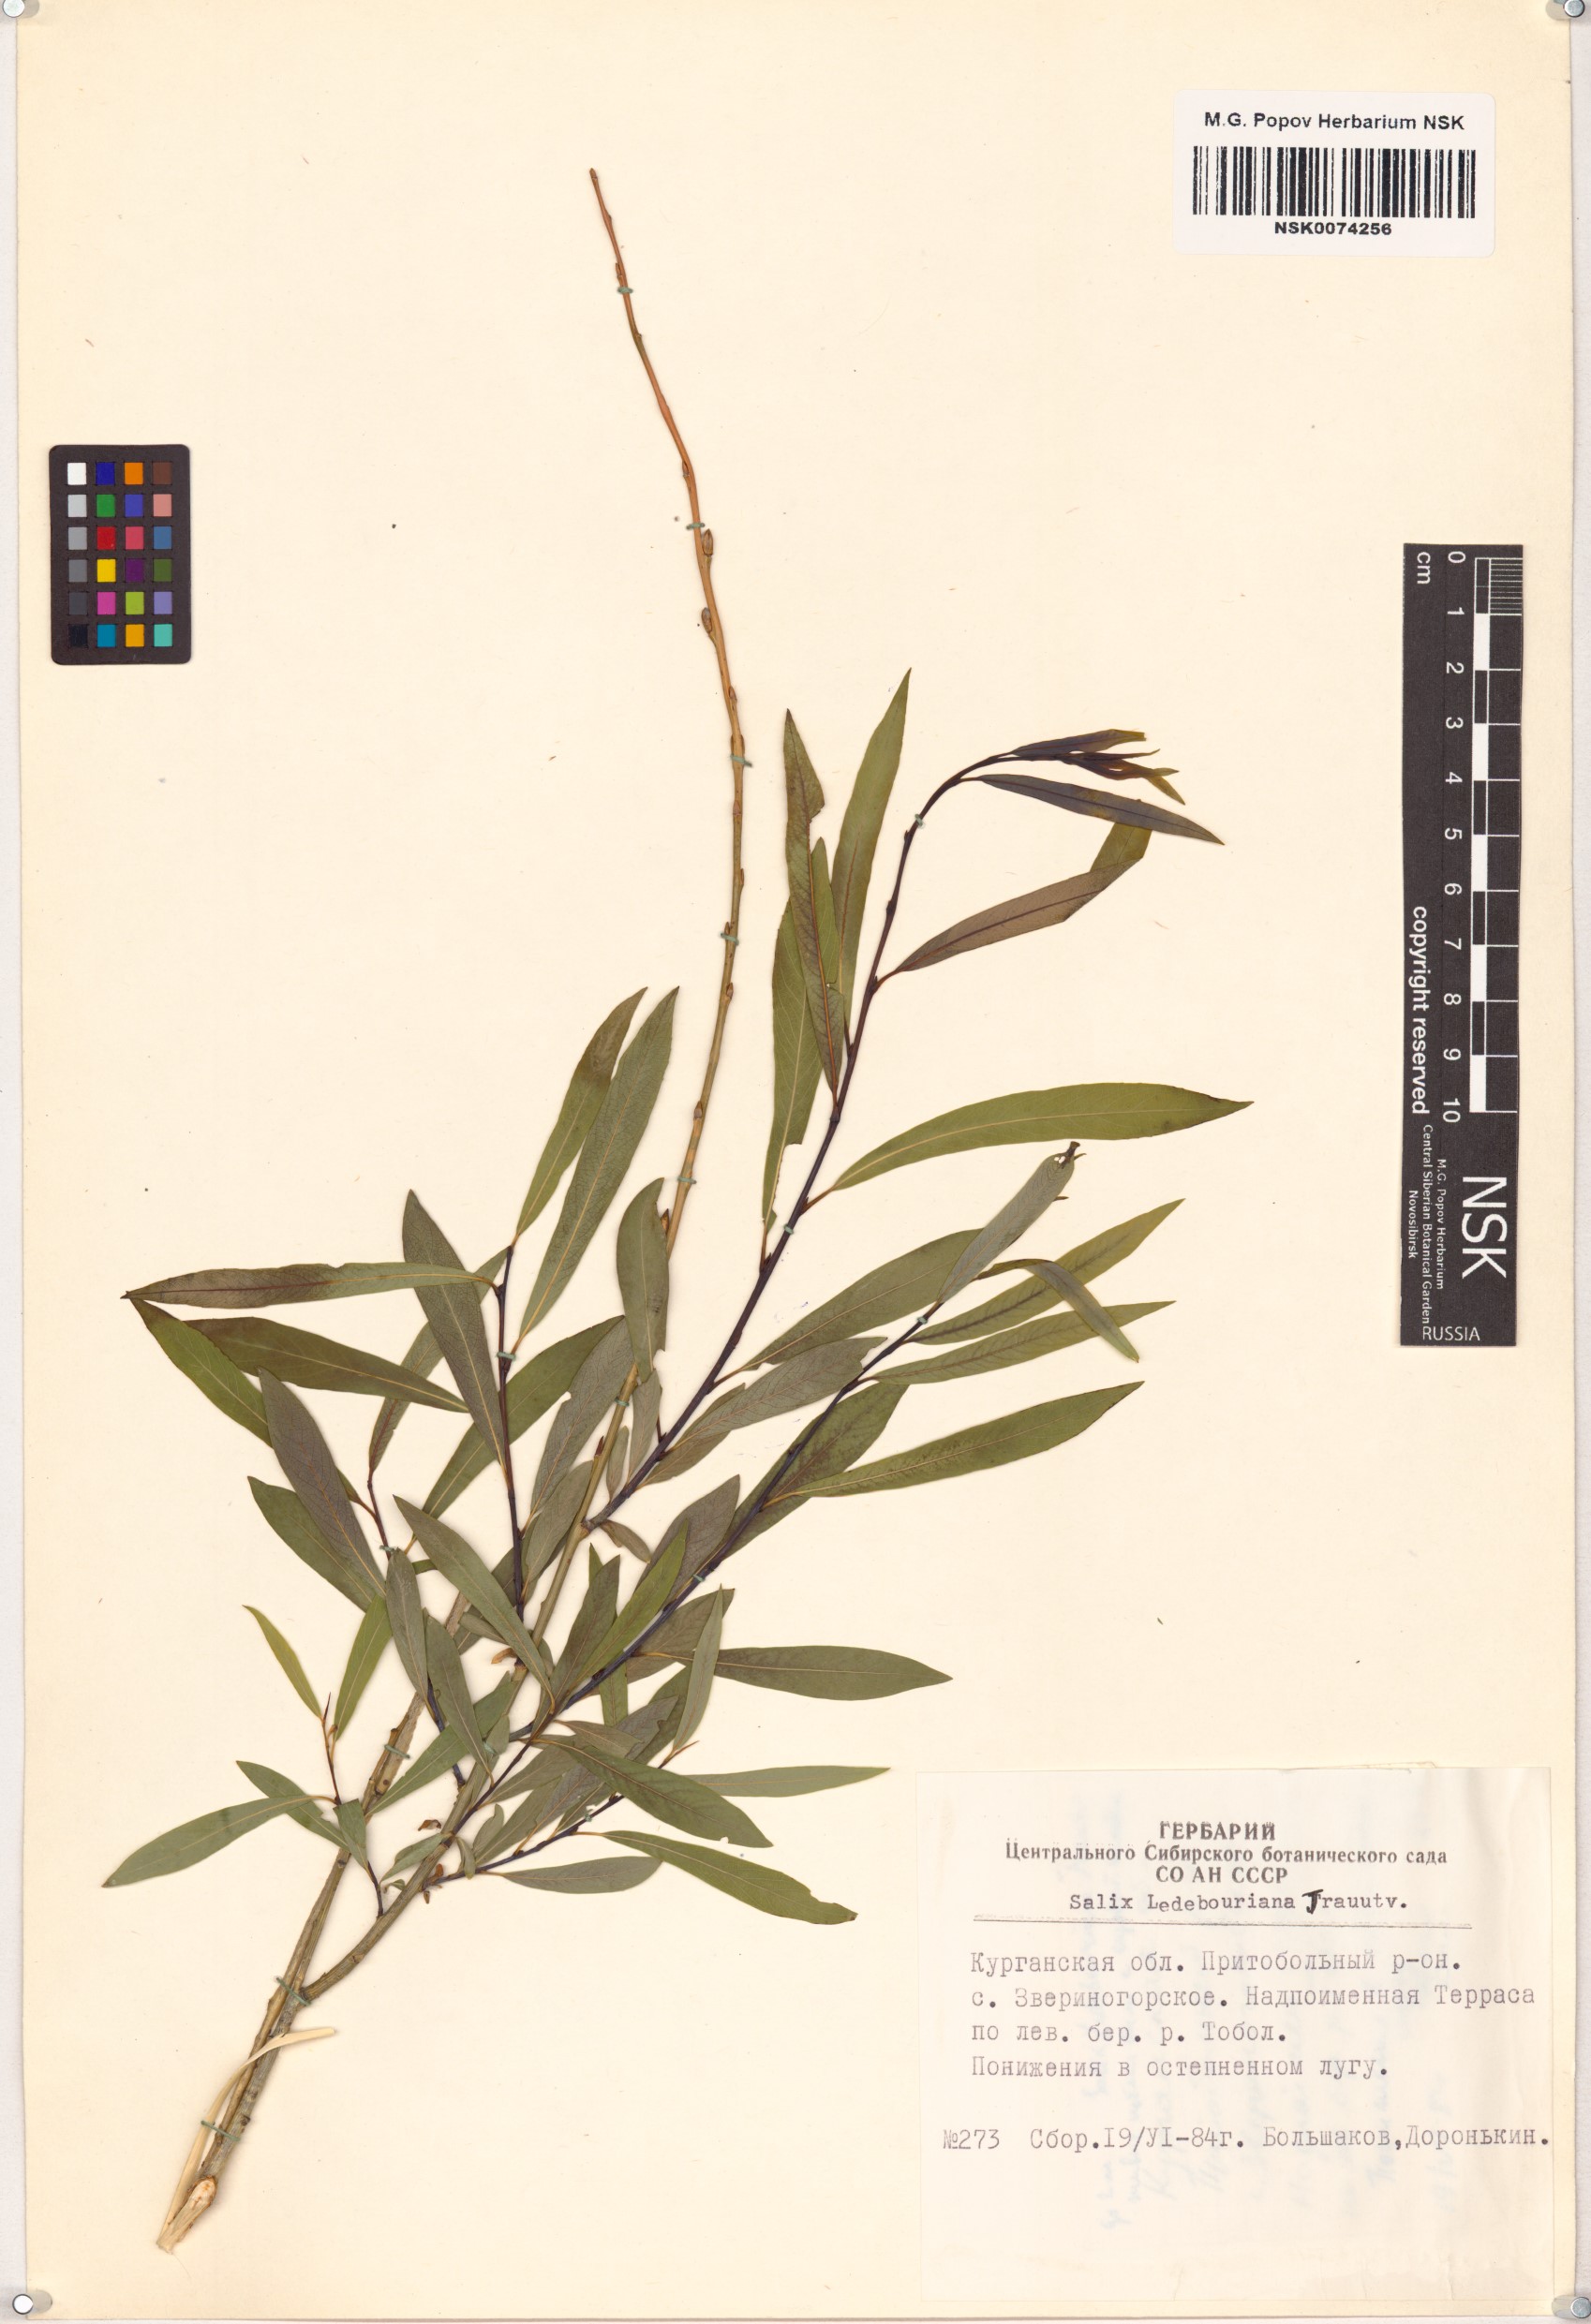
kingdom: Plantae
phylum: Tracheophyta
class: Magnoliopsida
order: Malpighiales
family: Salicaceae
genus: Salix
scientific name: Salix ledebouriana
